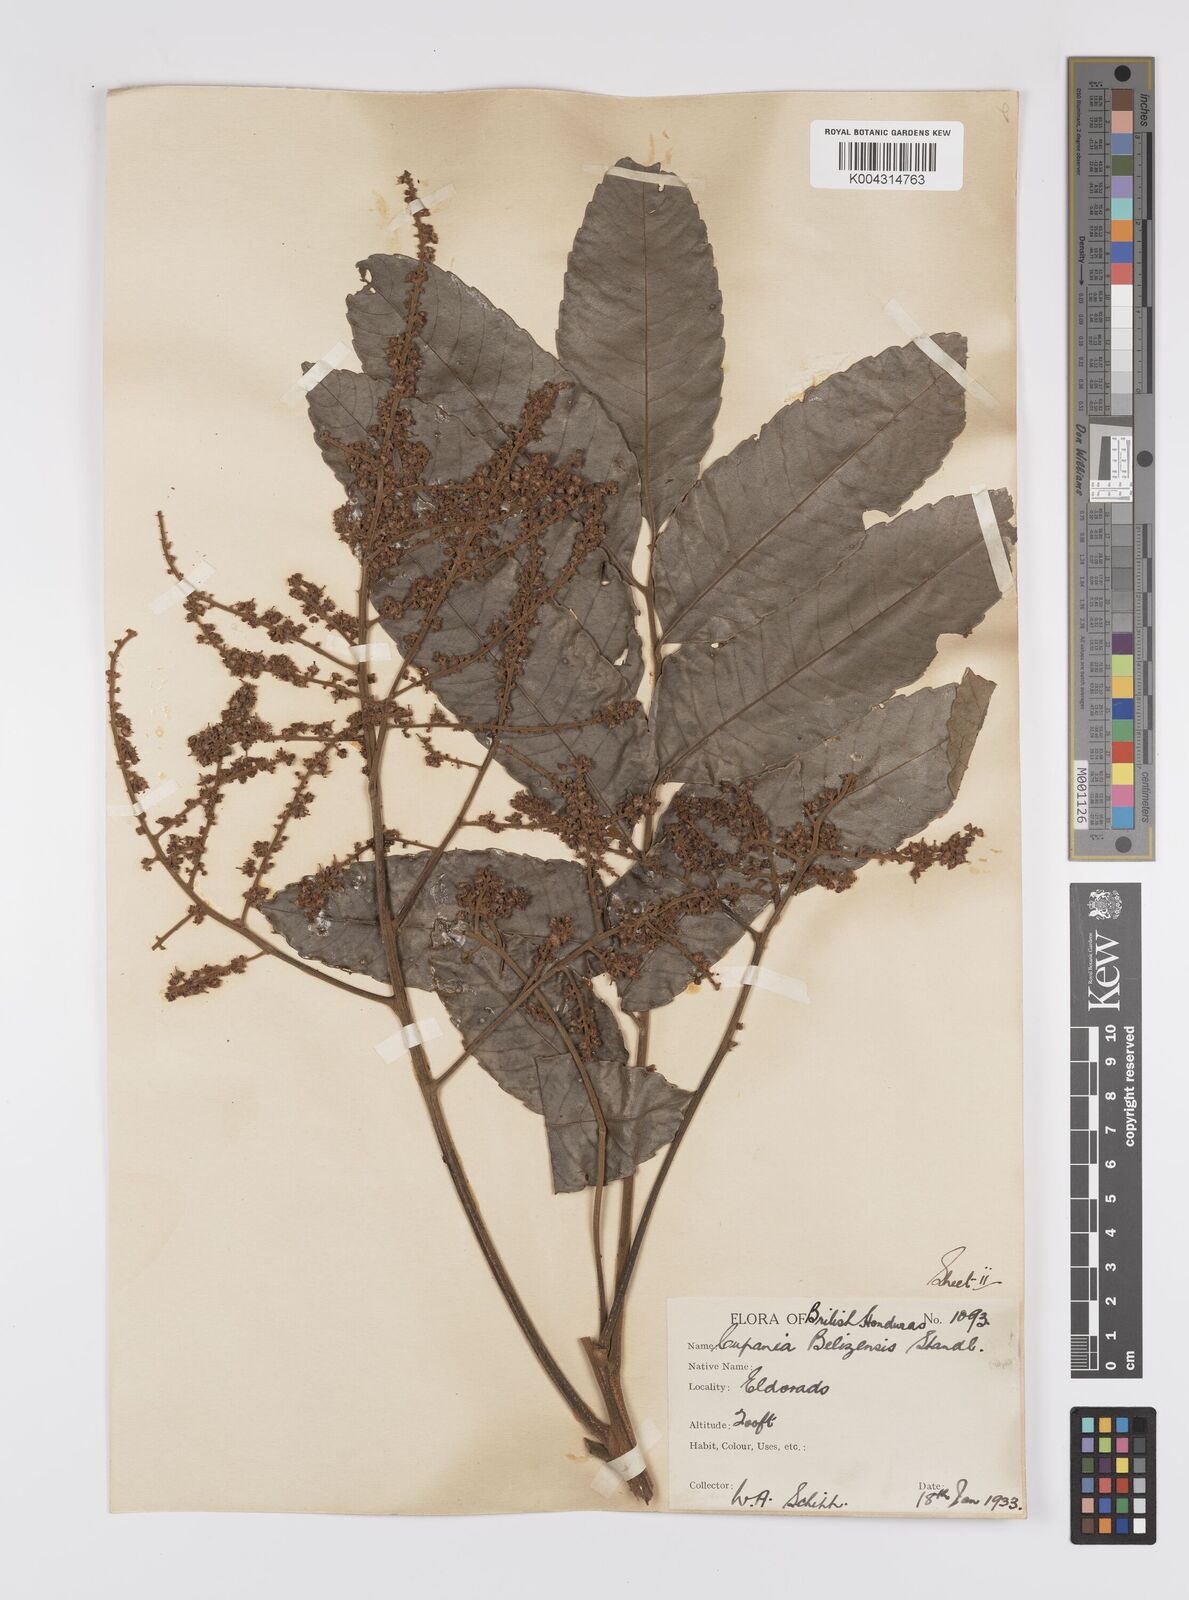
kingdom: Plantae
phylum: Tracheophyta
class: Magnoliopsida
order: Sapindales
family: Sapindaceae
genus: Cupania
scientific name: Cupania belizensis
